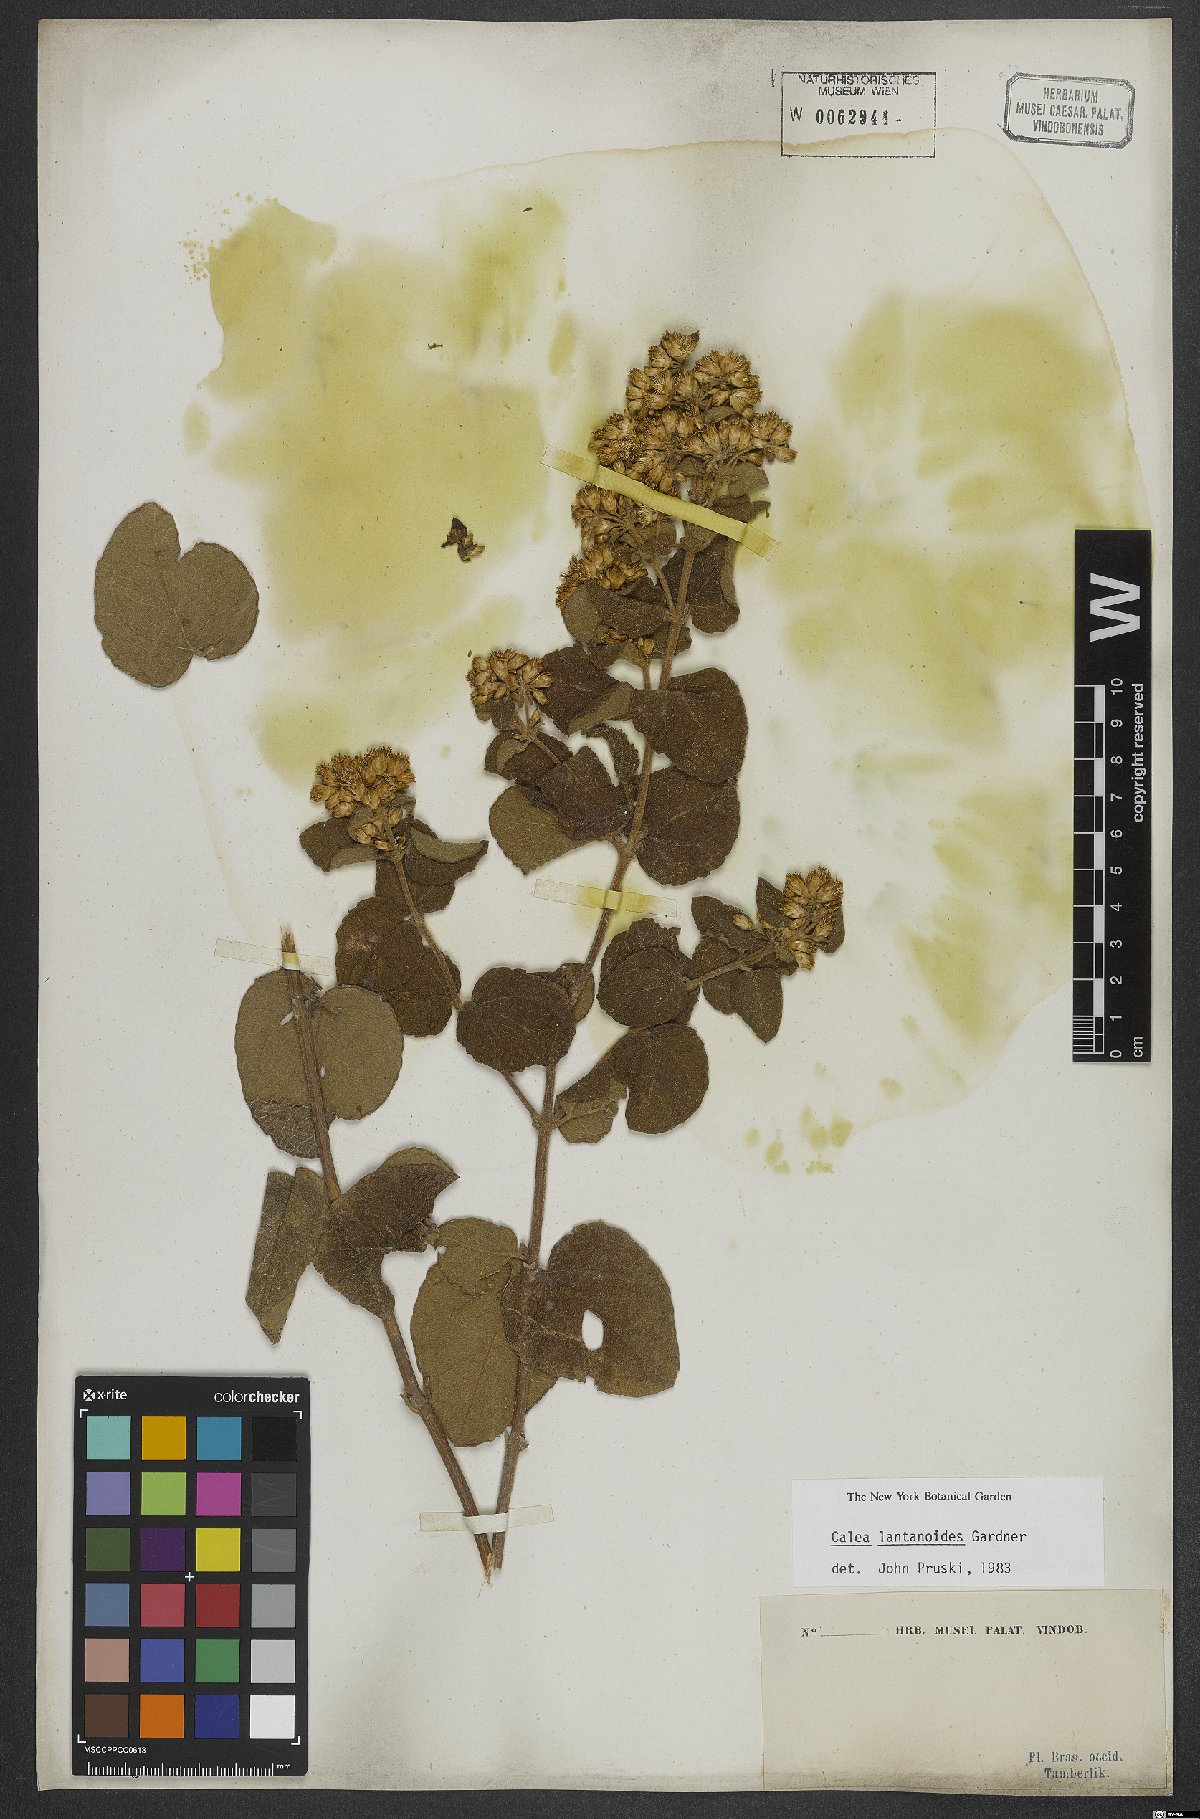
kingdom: Plantae
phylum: Tracheophyta
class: Magnoliopsida
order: Asterales
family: Asteraceae
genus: Calea
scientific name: Calea lantanoides
